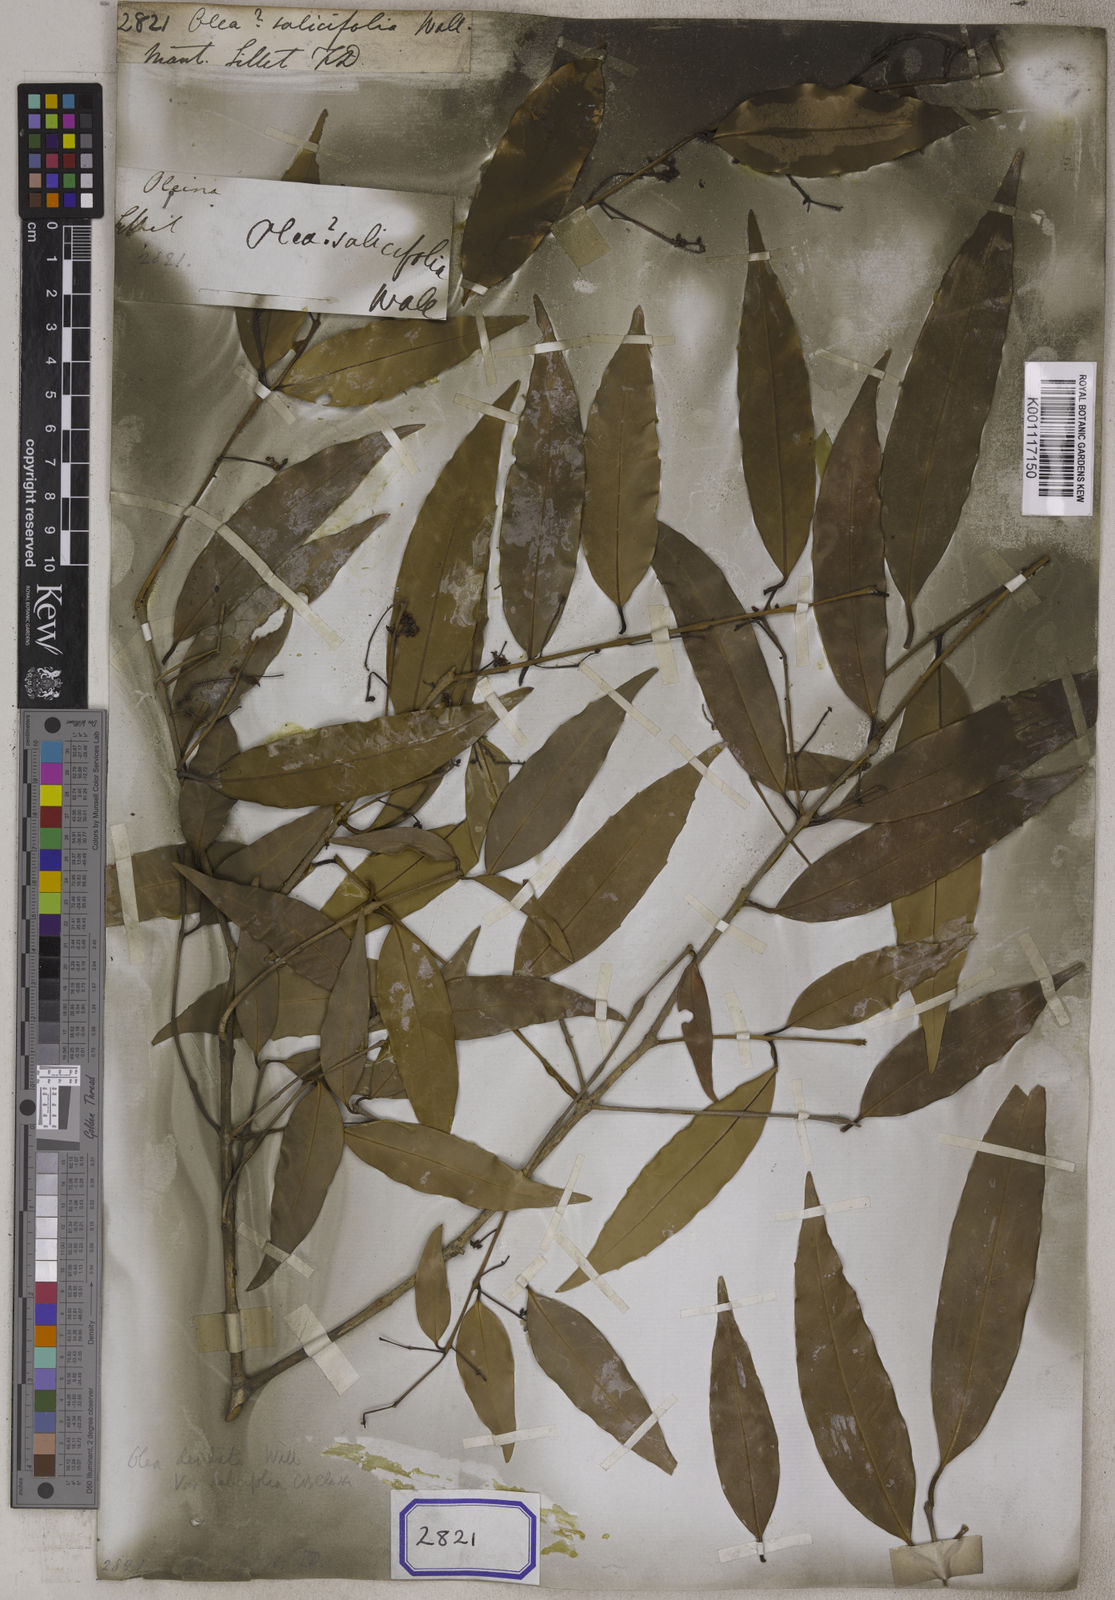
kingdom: Plantae
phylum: Tracheophyta
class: Magnoliopsida
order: Lamiales
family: Oleaceae
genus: Olea
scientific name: Olea
